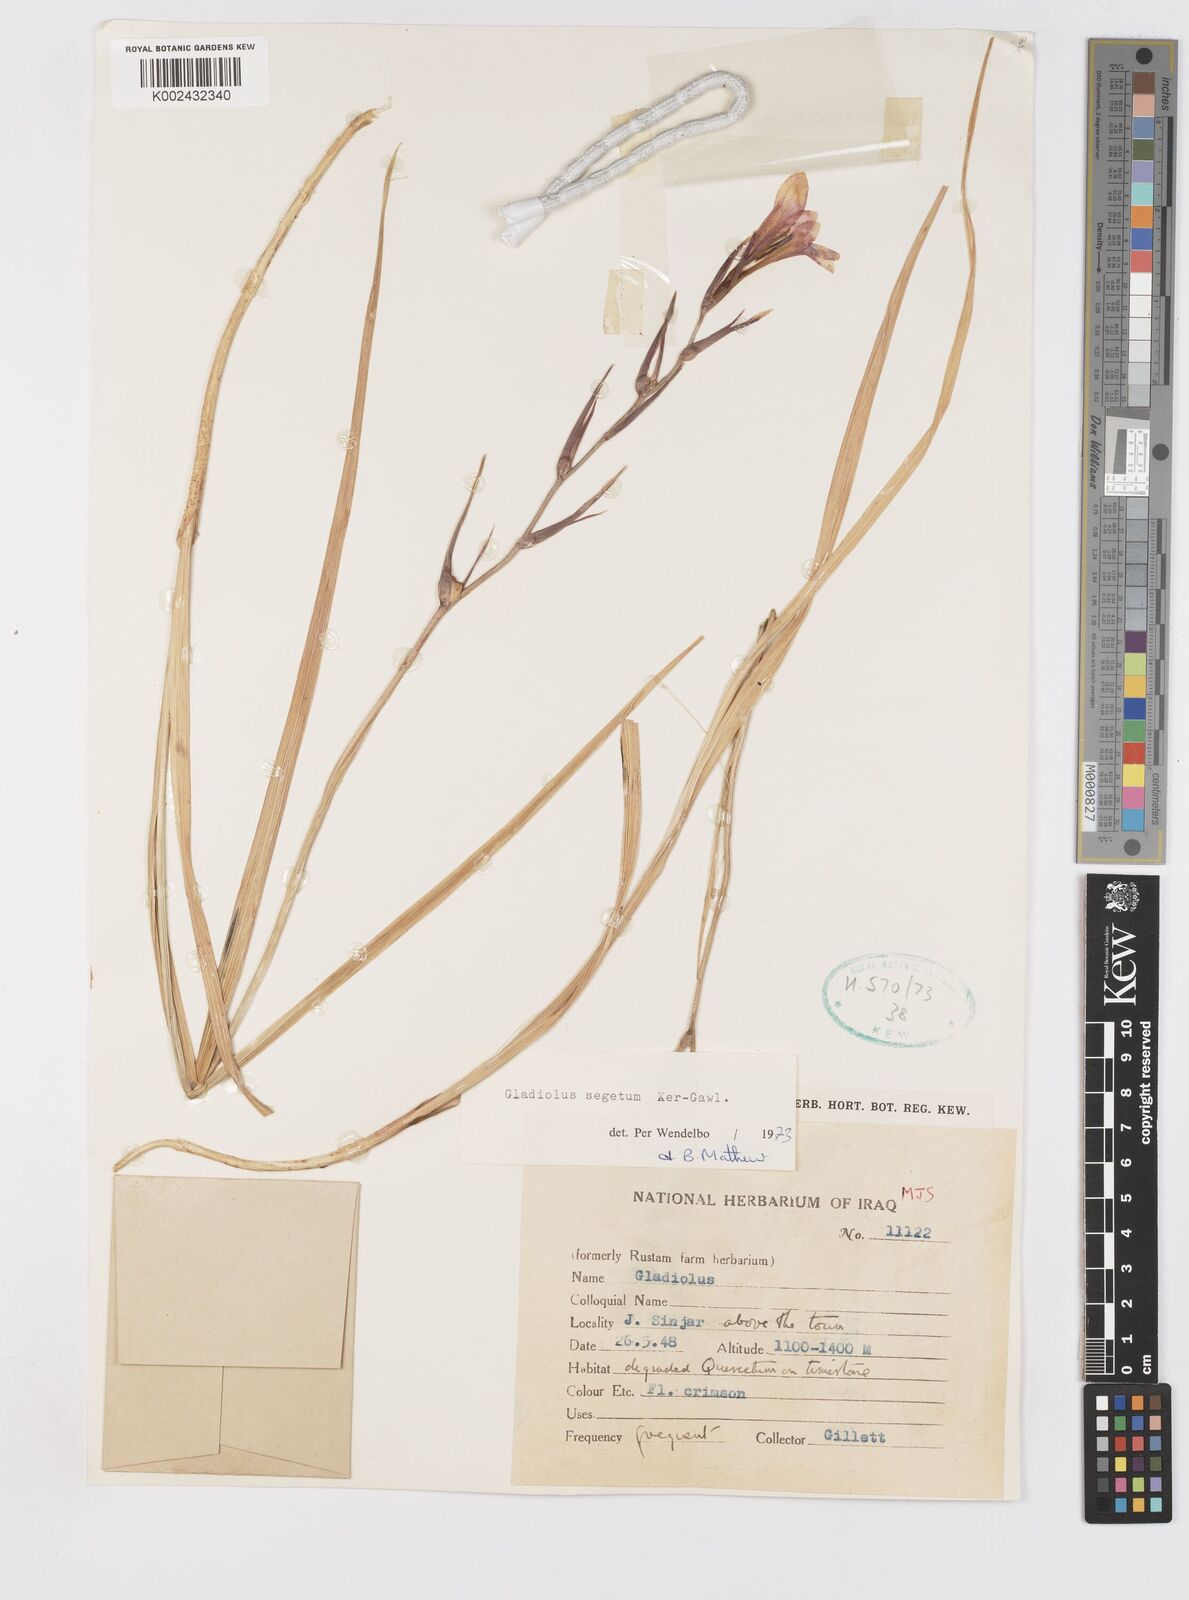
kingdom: Plantae
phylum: Tracheophyta
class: Liliopsida
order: Asparagales
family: Iridaceae
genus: Gladiolus
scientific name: Gladiolus italicus
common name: Field gladiolus
